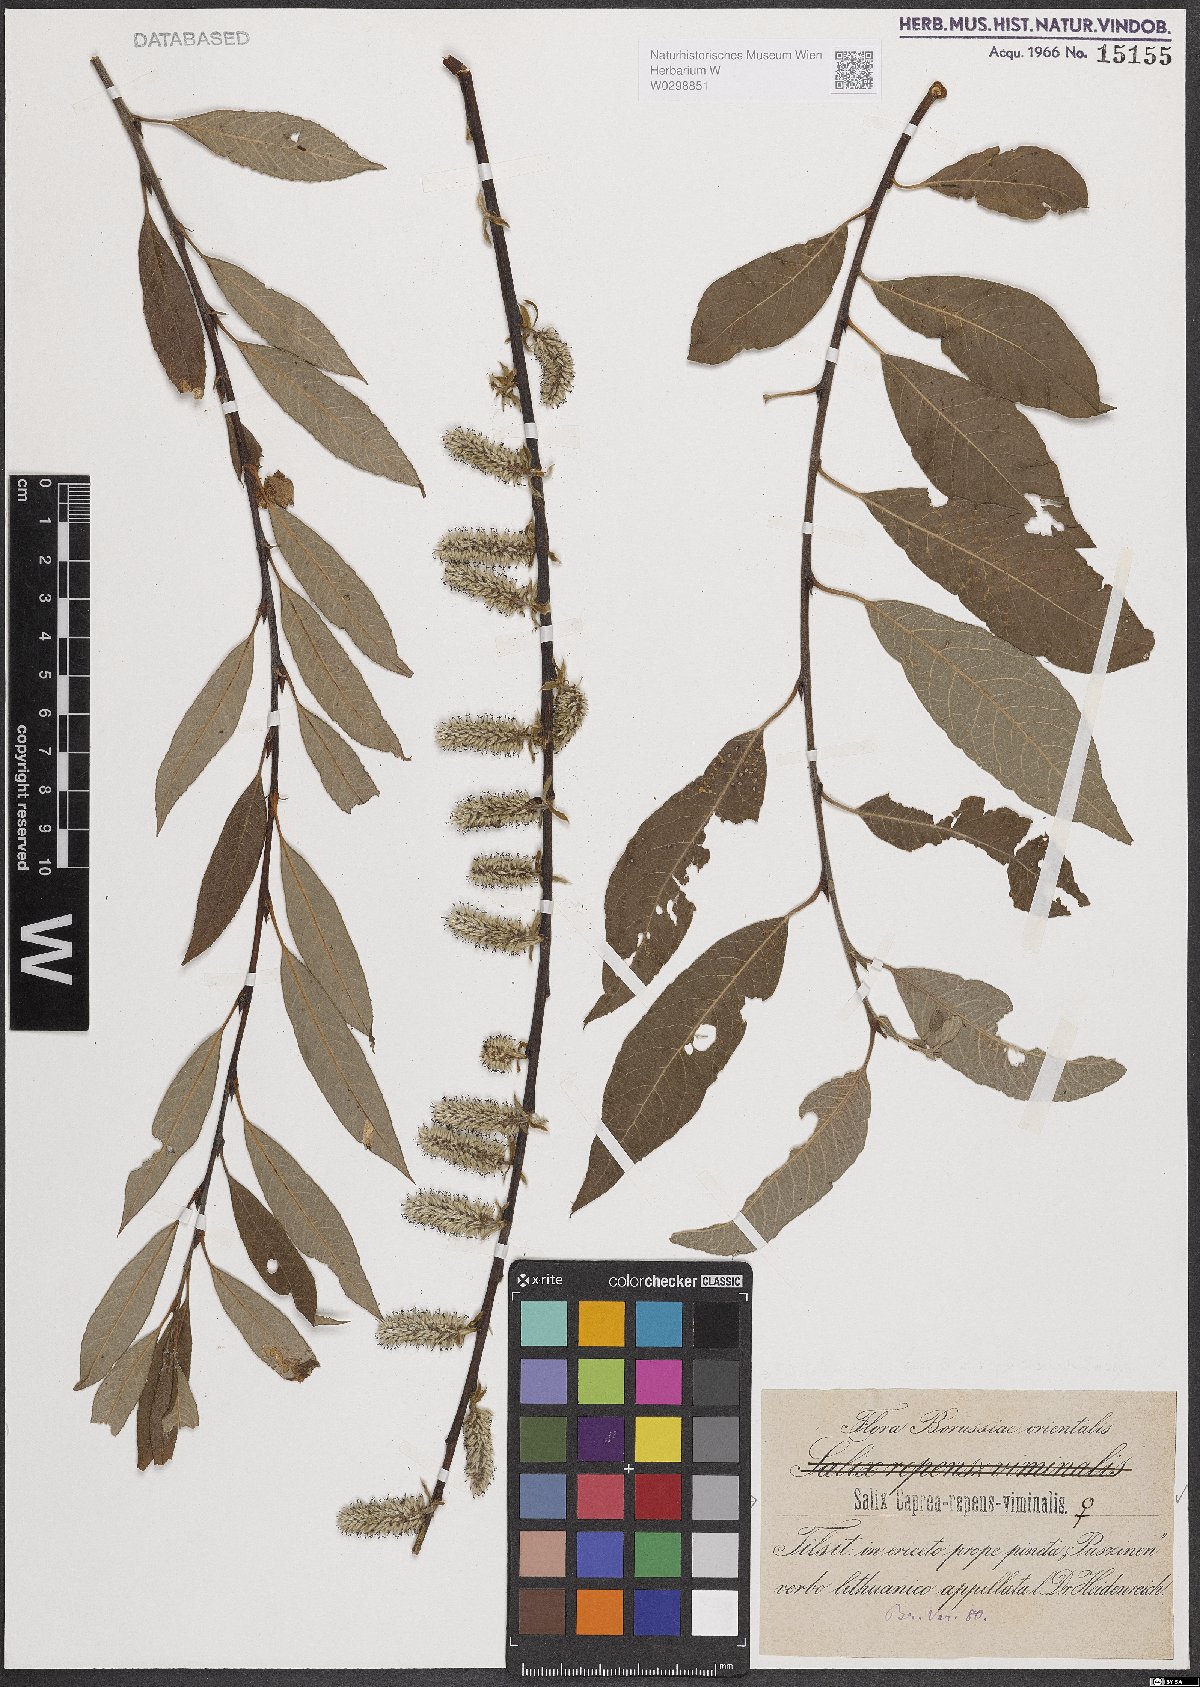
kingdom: Plantae
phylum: Tracheophyta
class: Magnoliopsida
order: Malpighiales
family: Salicaceae
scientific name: Salicaceae
